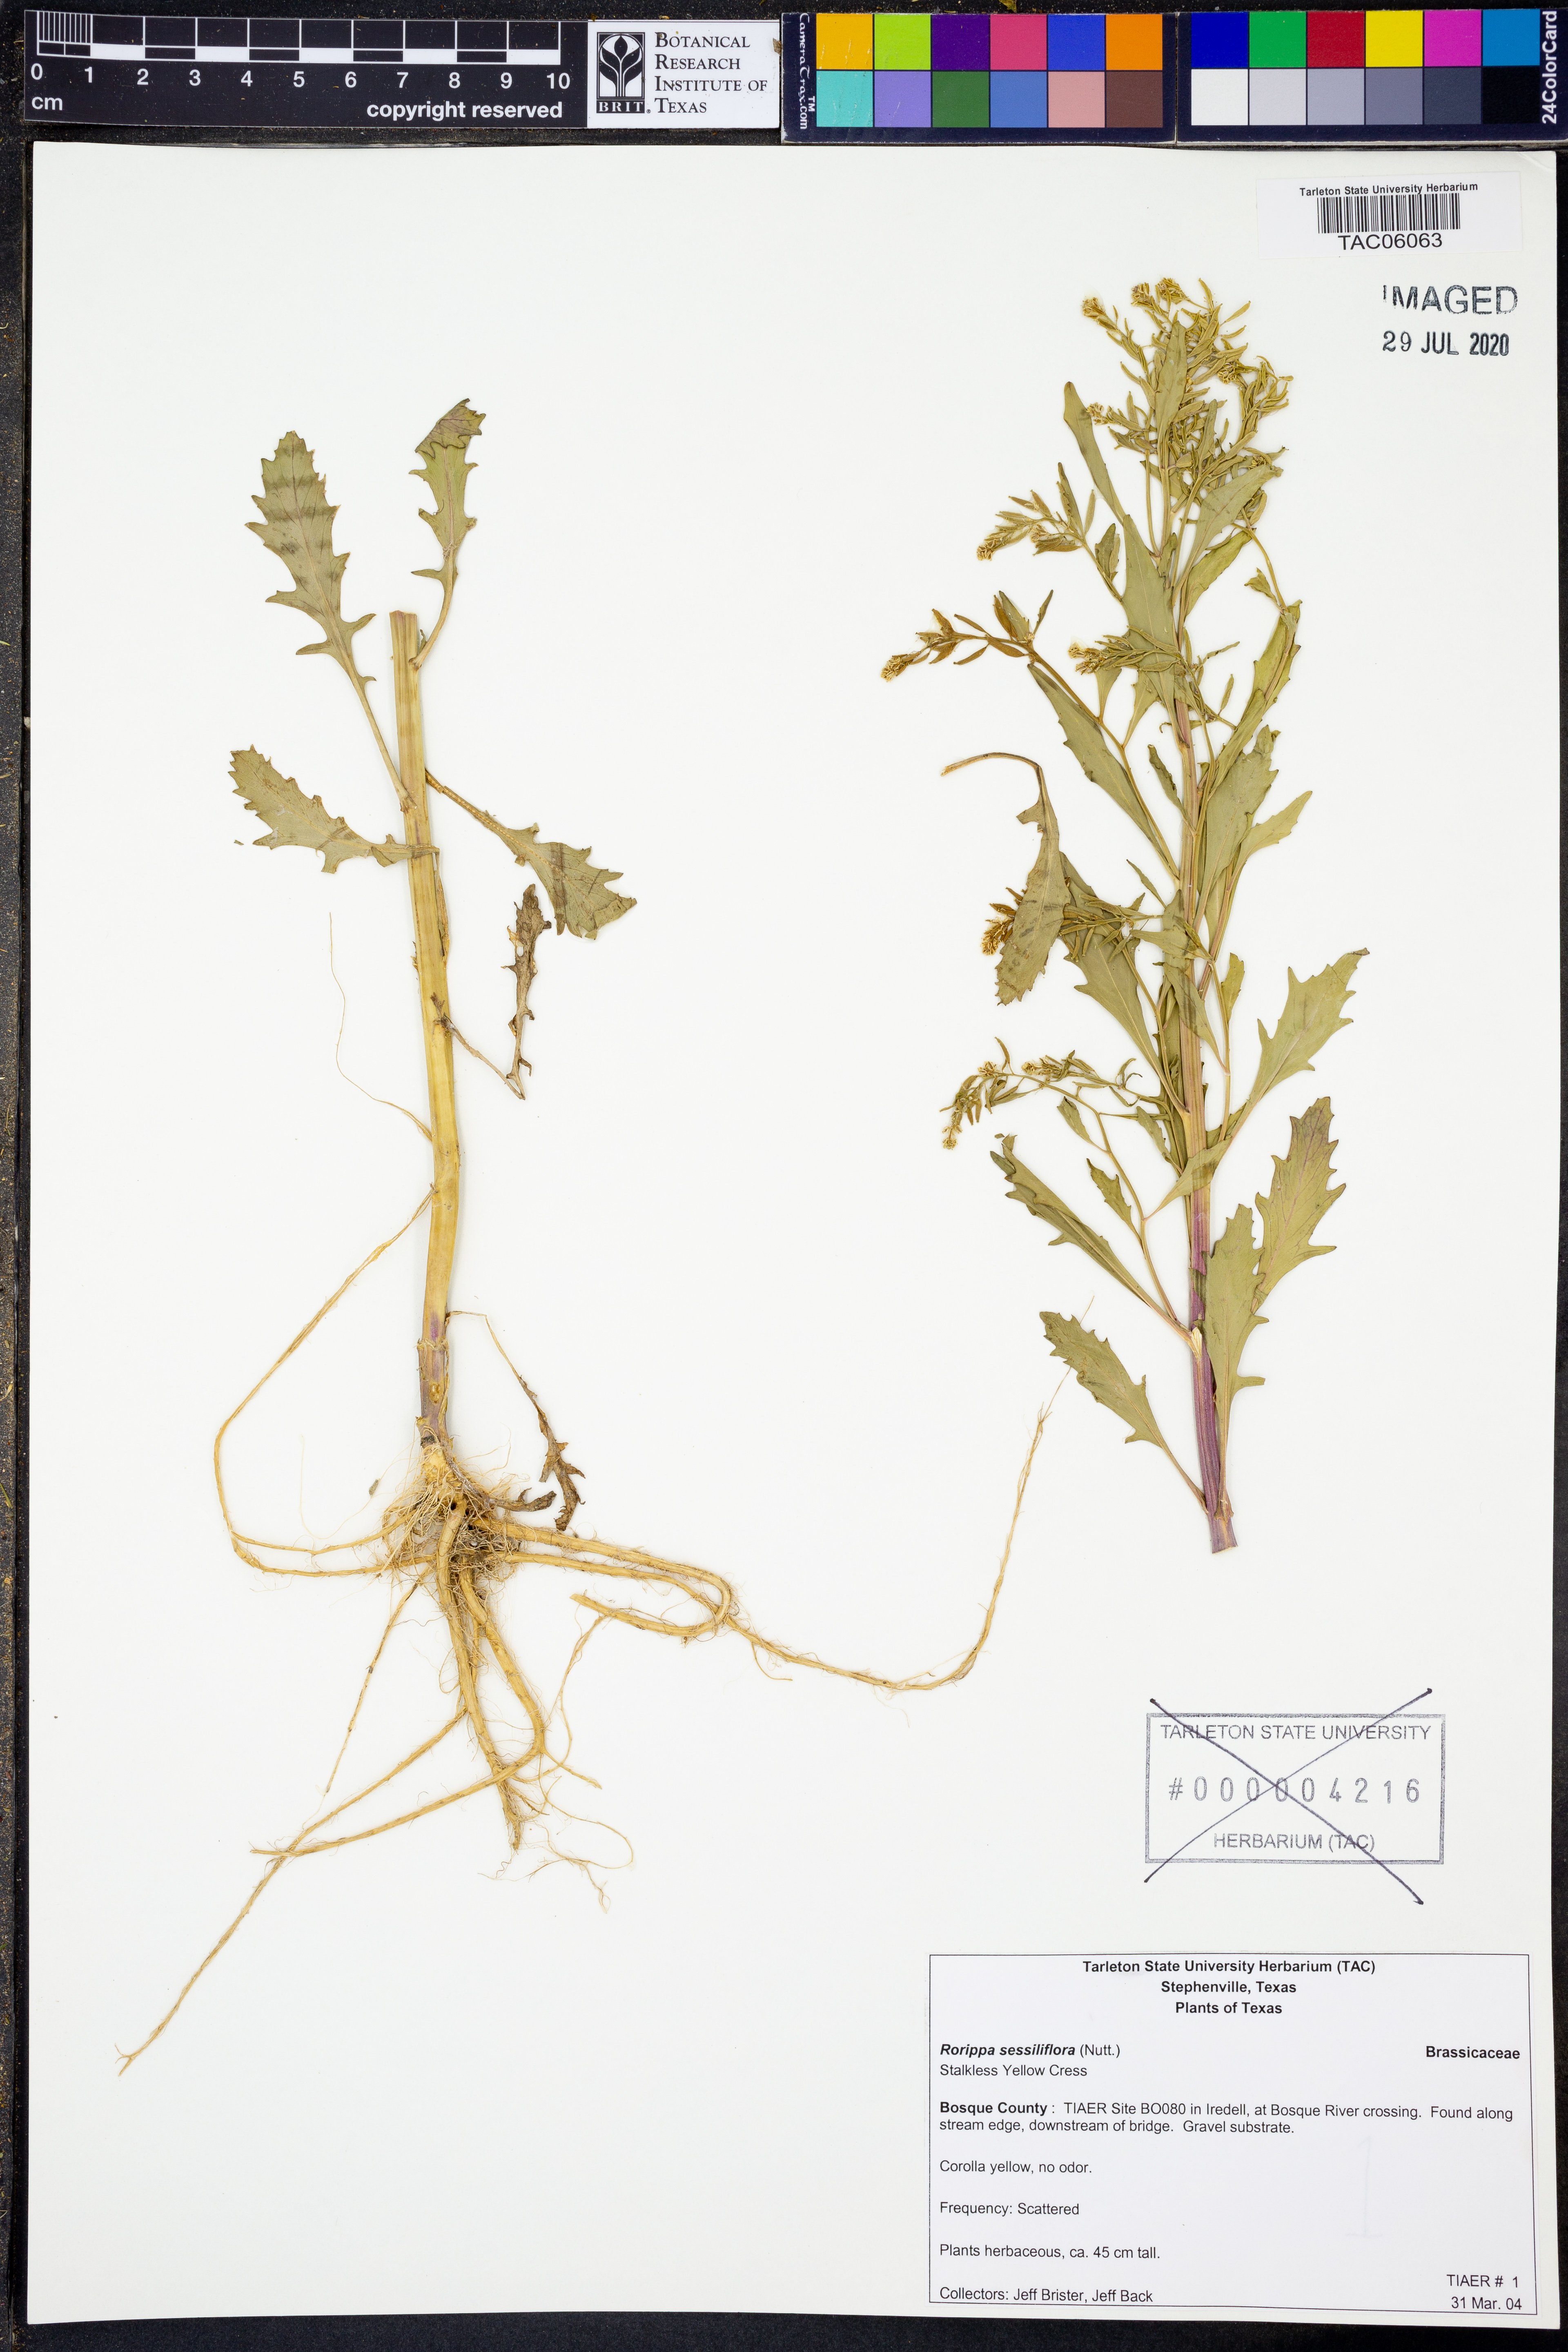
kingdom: Plantae
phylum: Tracheophyta
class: Magnoliopsida
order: Brassicales
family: Brassicaceae
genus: Rorippa
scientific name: Rorippa sessiliflora
